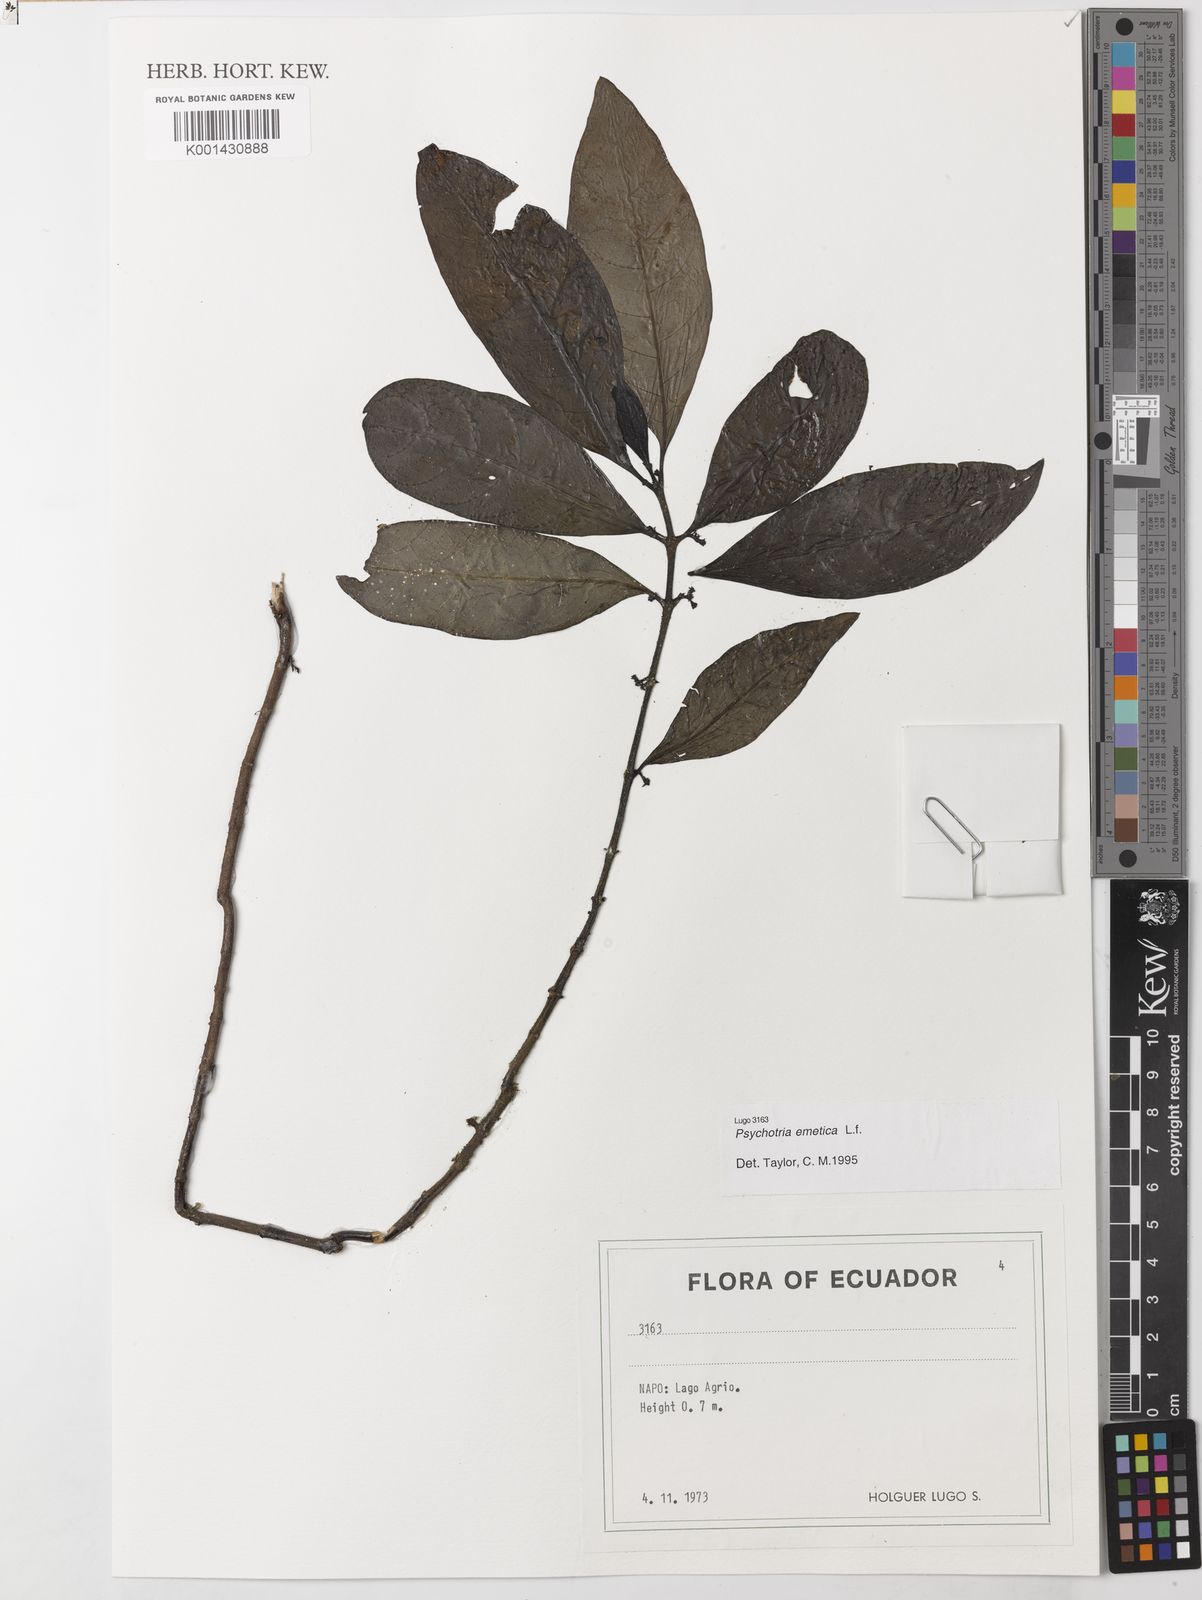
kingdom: Plantae
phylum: Tracheophyta
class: Magnoliopsida
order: Gentianales
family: Rubiaceae
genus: Ronabea
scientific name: Ronabea emetica
